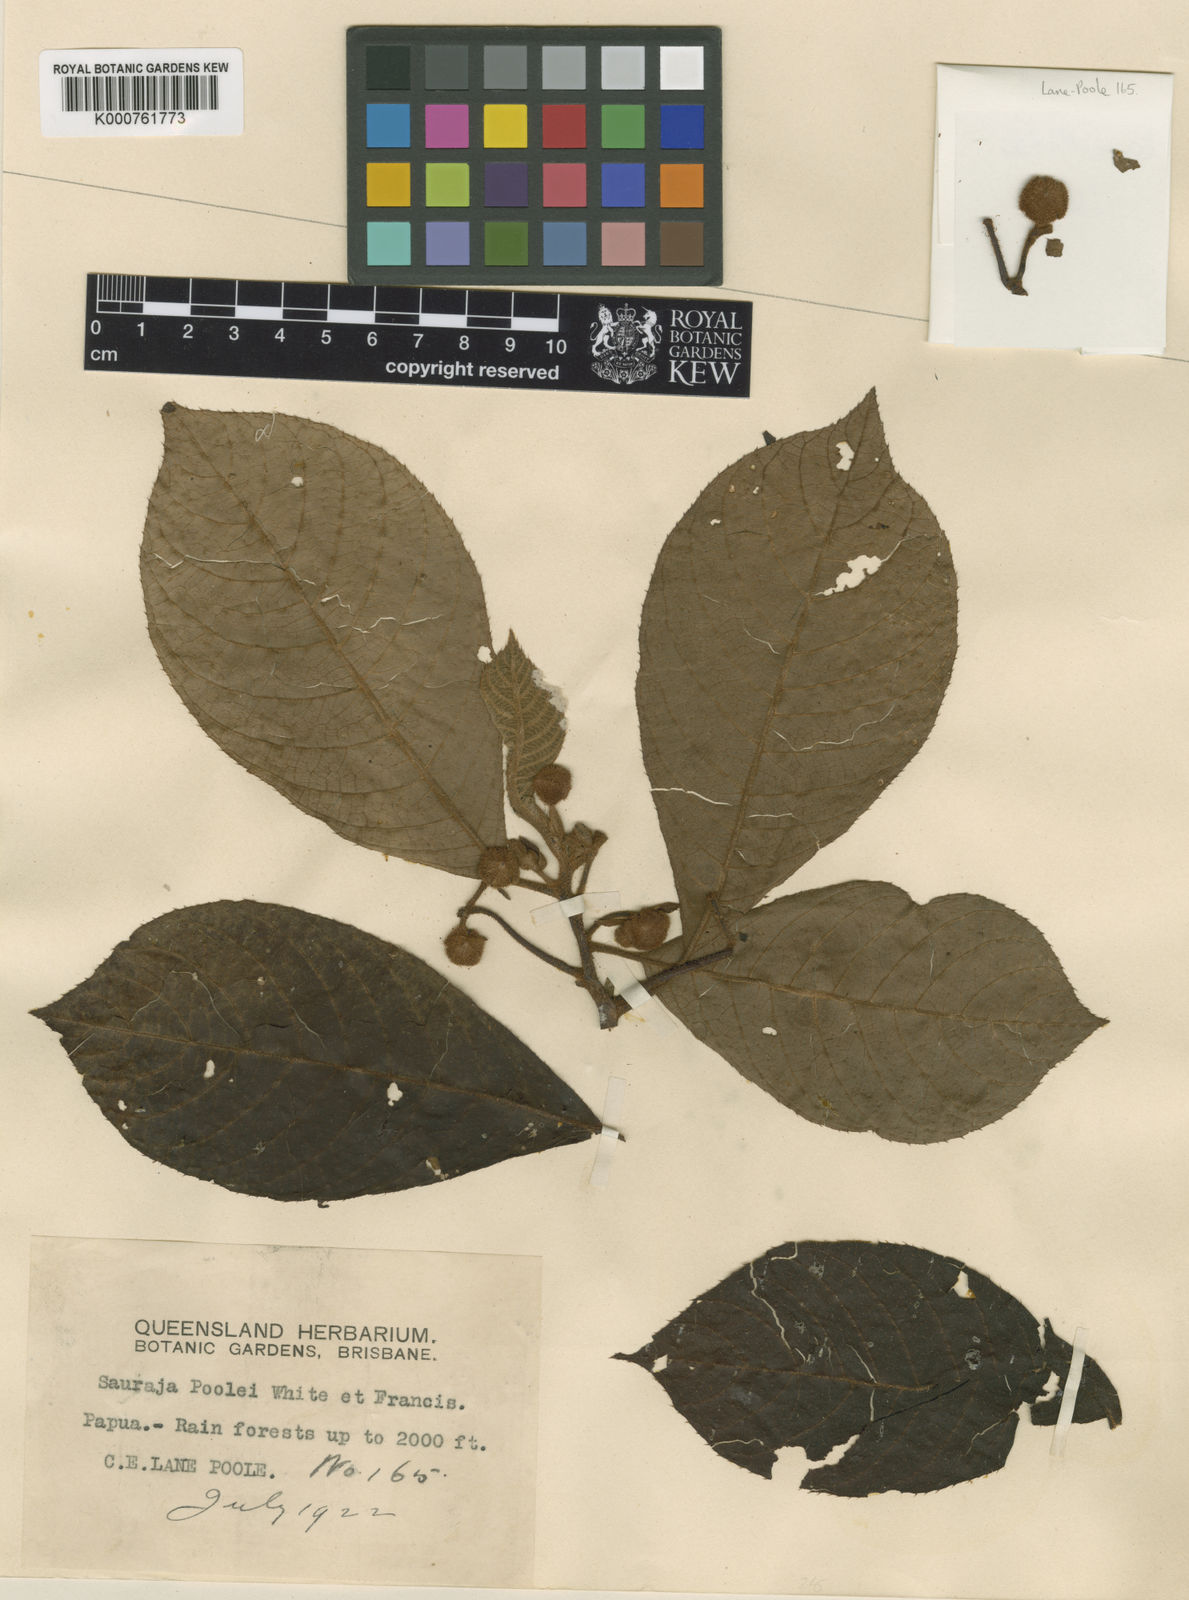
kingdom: Plantae
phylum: Tracheophyta
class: Magnoliopsida
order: Ericales
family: Actinidiaceae
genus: Saurauia
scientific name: Saurauia poolei
